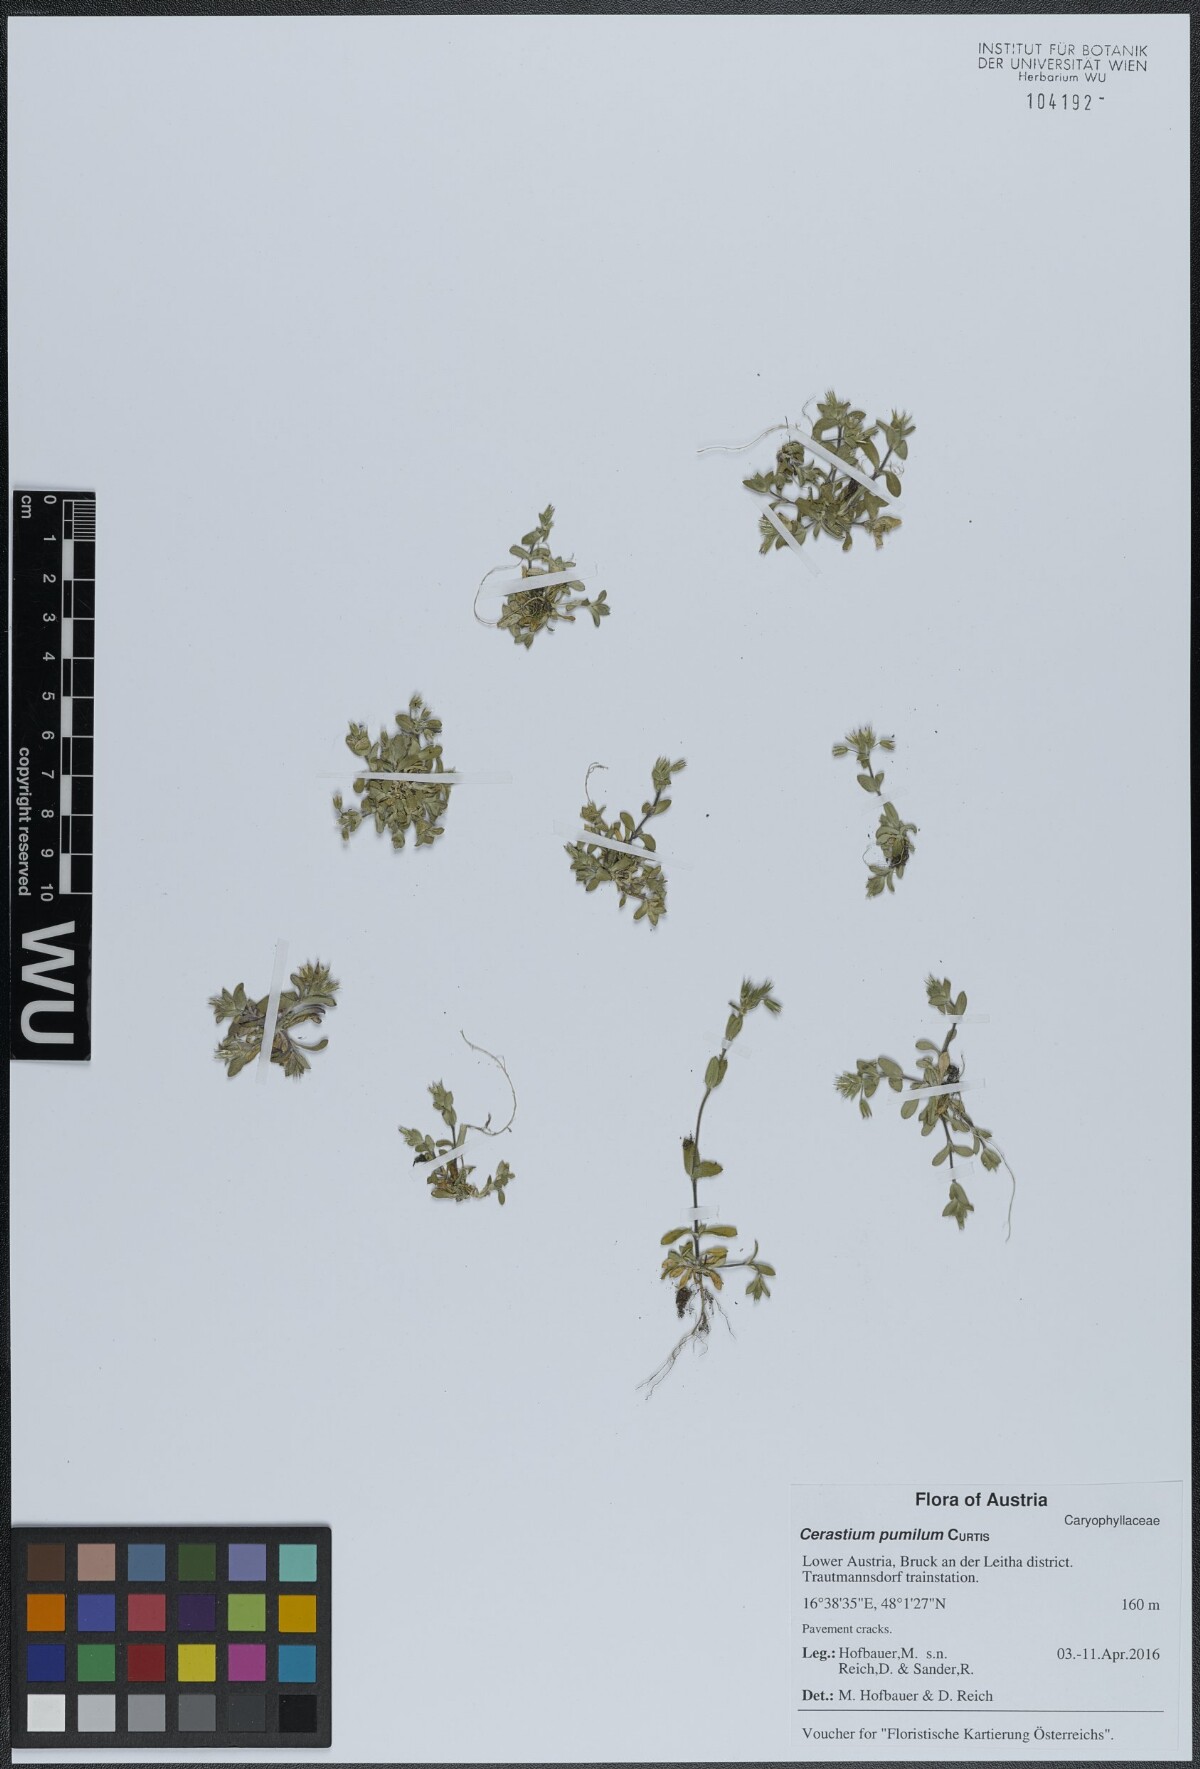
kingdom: Plantae
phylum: Tracheophyta
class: Magnoliopsida
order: Caryophyllales
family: Caryophyllaceae
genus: Cerastium
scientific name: Cerastium pumilum
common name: Dwarf mouse-ear
